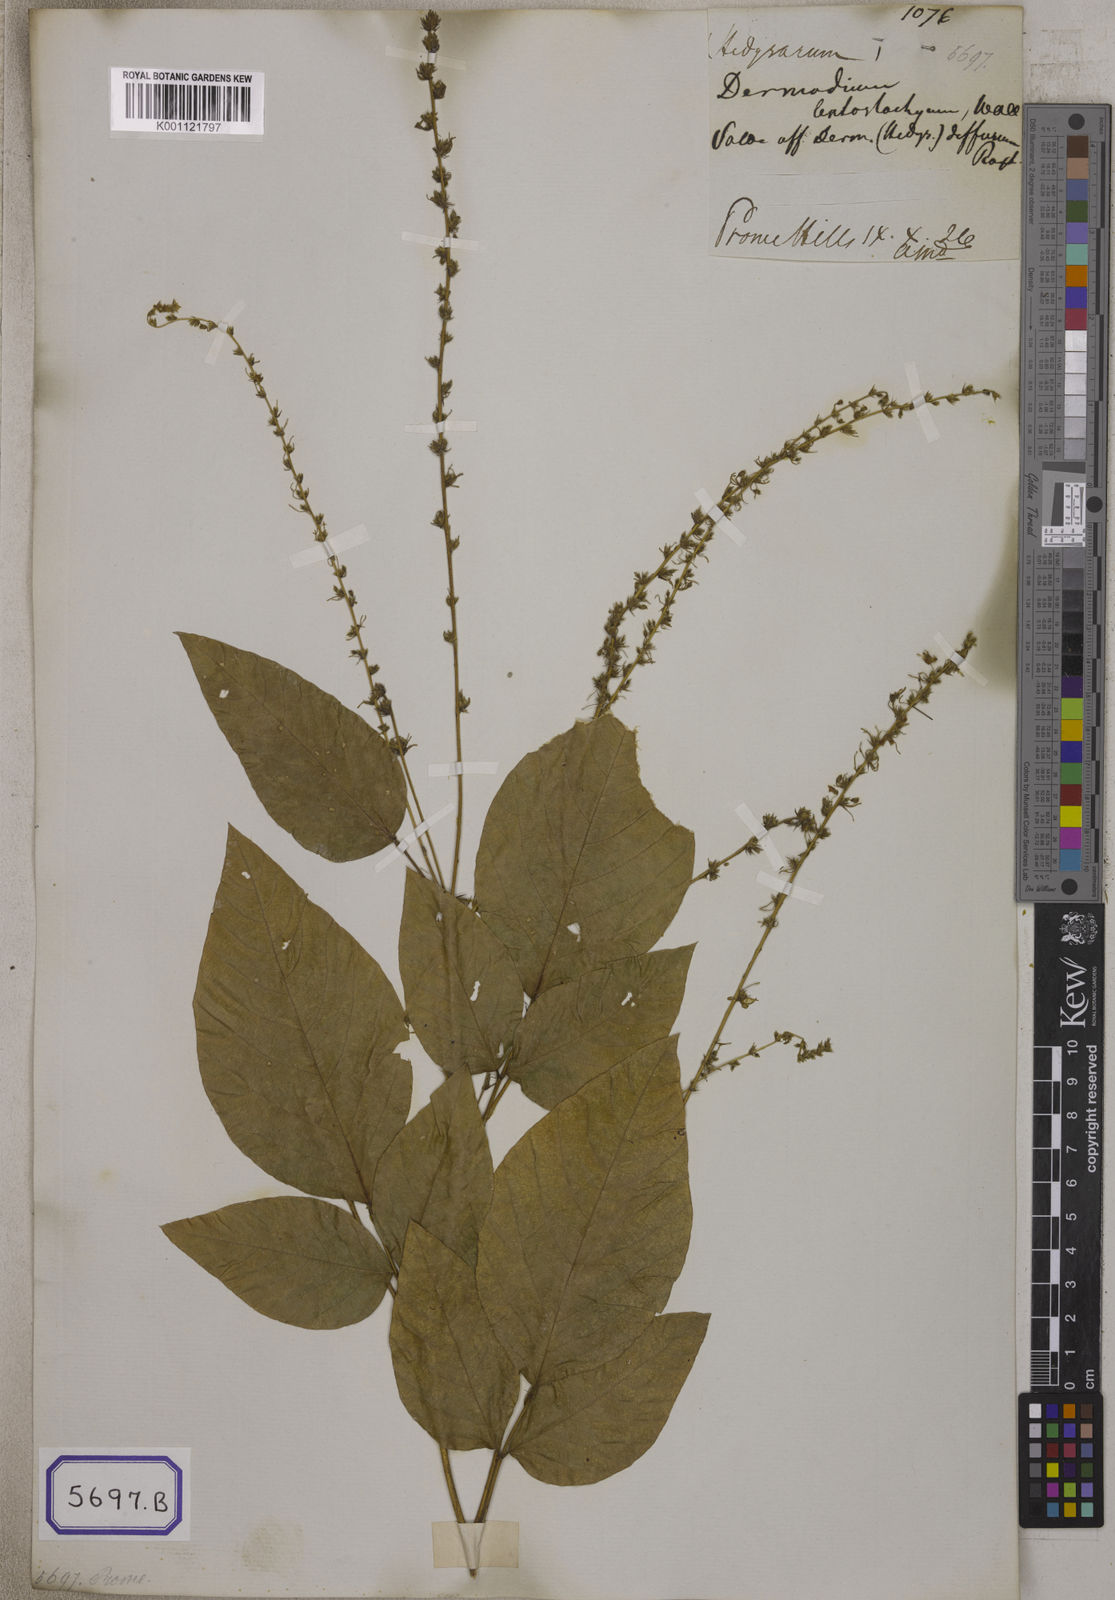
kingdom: Plantae
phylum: Tracheophyta
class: Magnoliopsida
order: Fabales
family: Fabaceae
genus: Desmodium
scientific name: Desmodium
